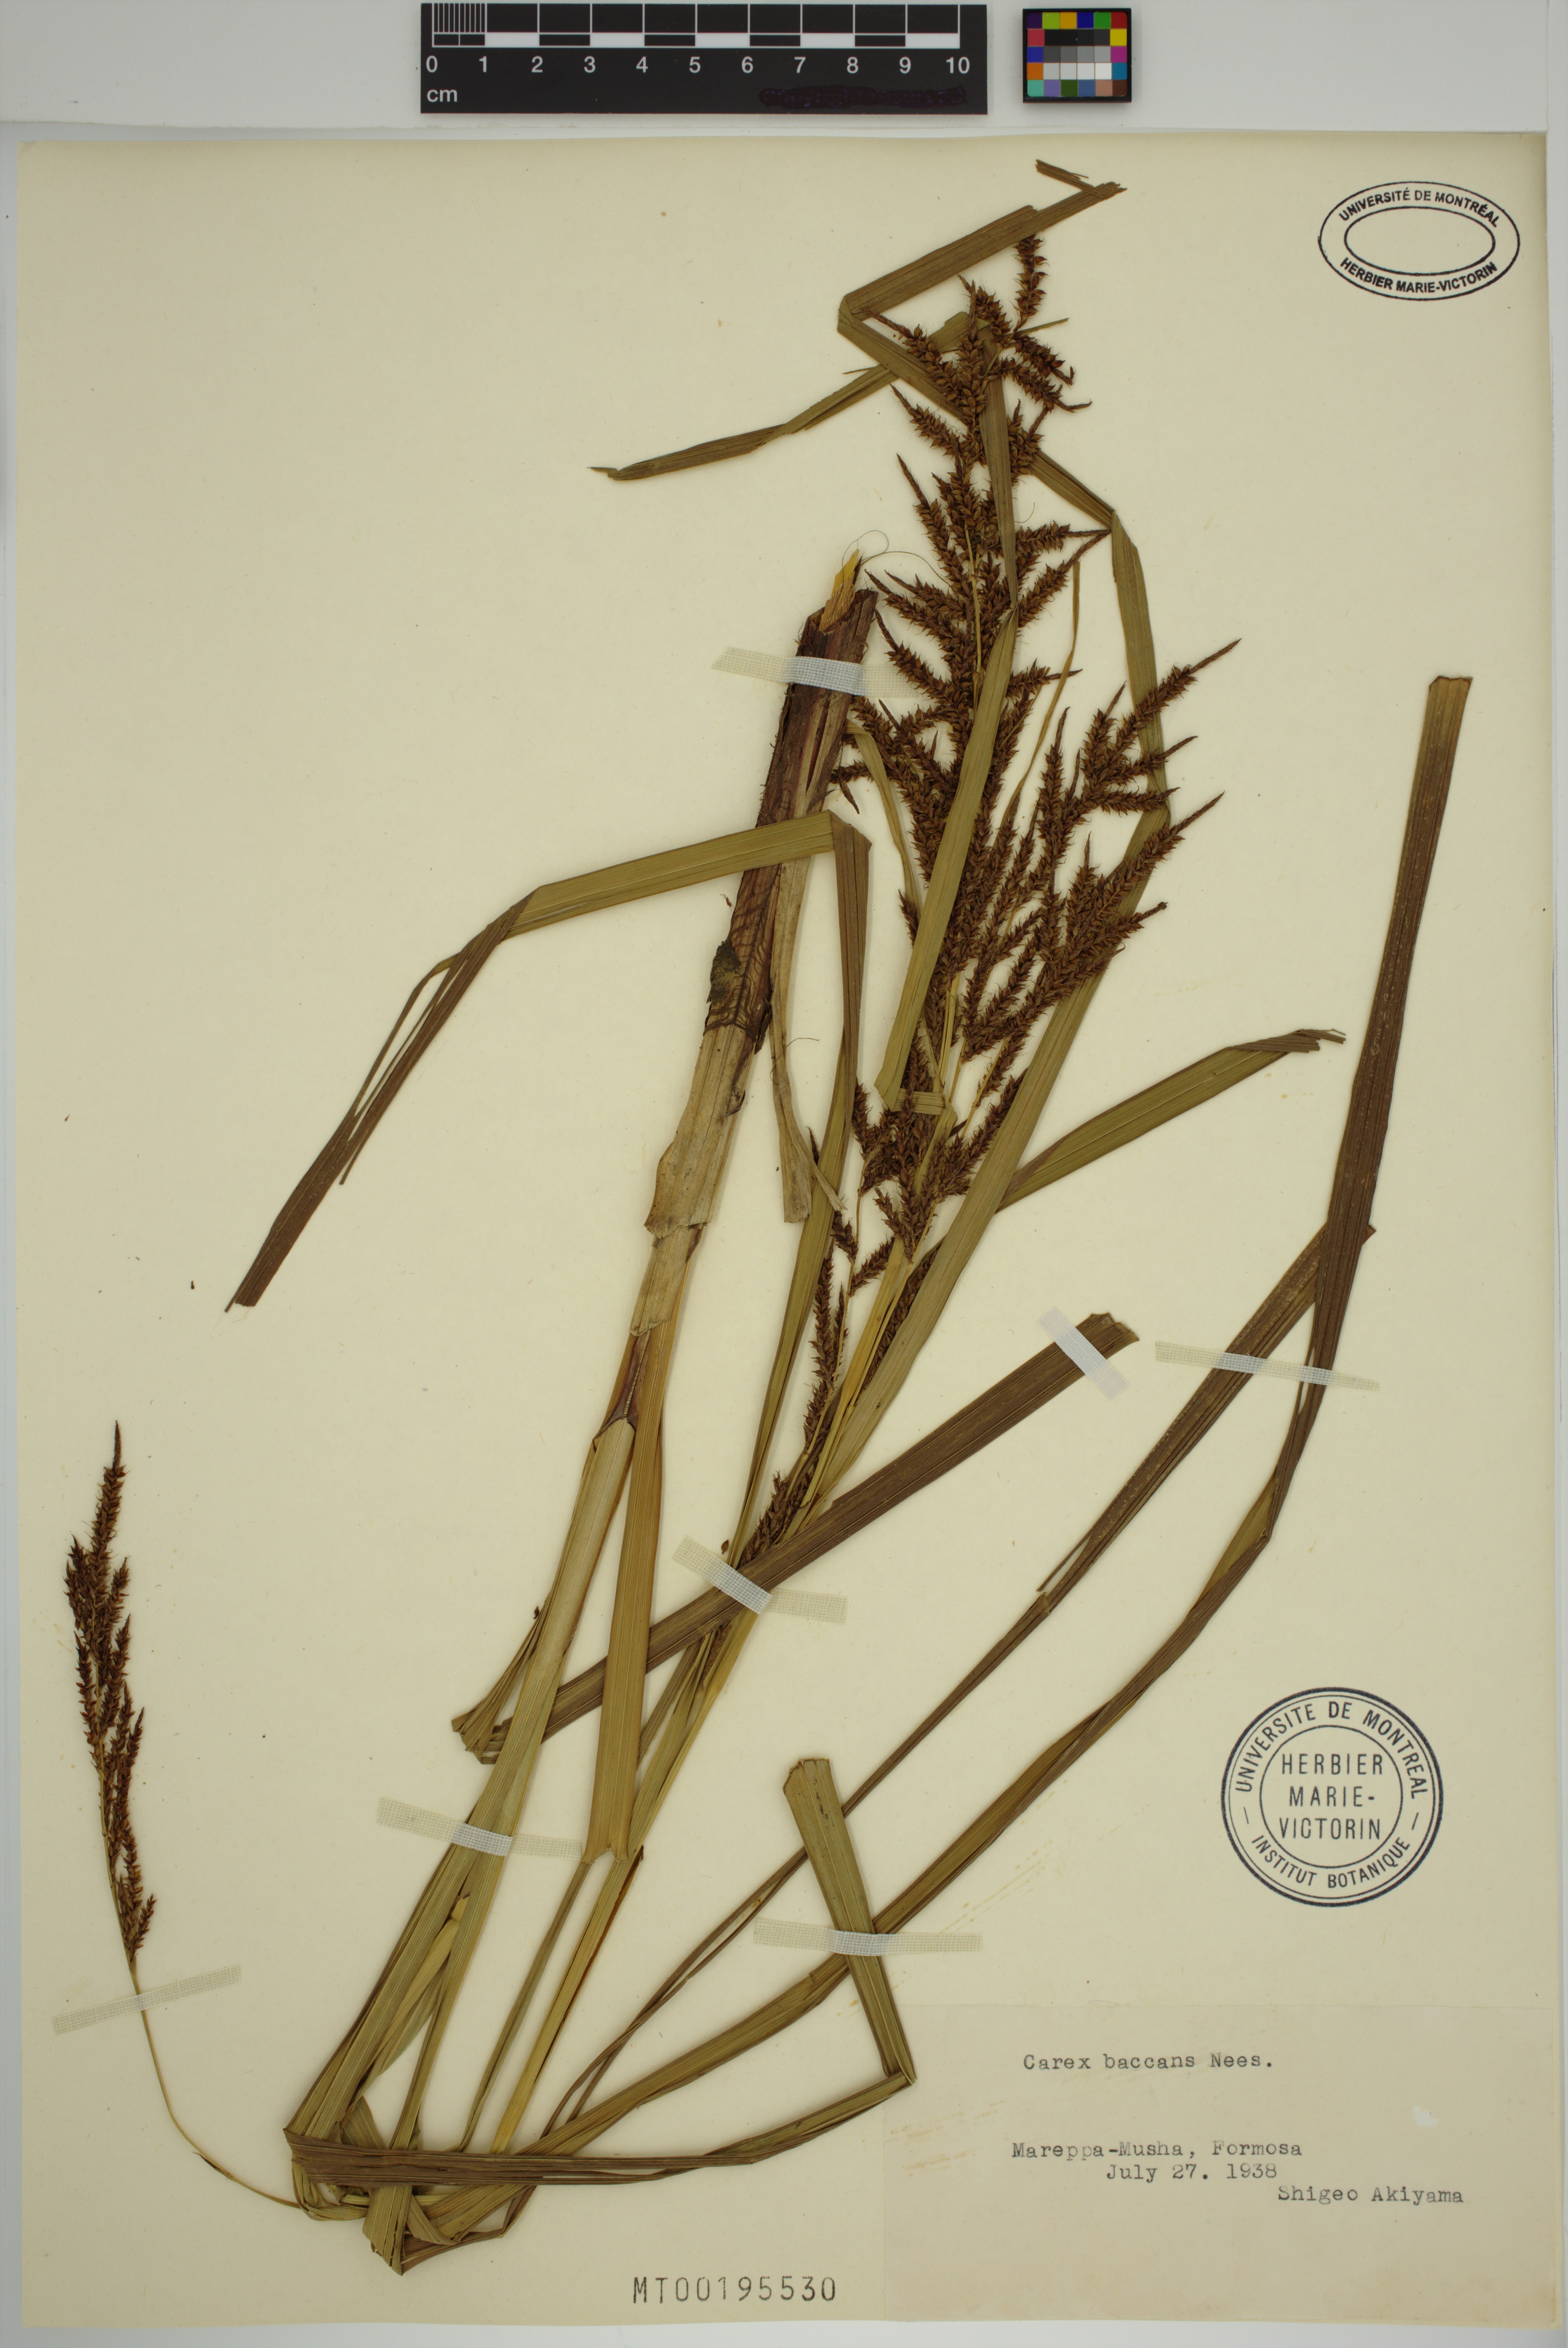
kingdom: Plantae
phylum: Tracheophyta
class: Liliopsida
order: Poales
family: Cyperaceae
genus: Carex
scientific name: Carex baccans
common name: Crimson seeded sedge
